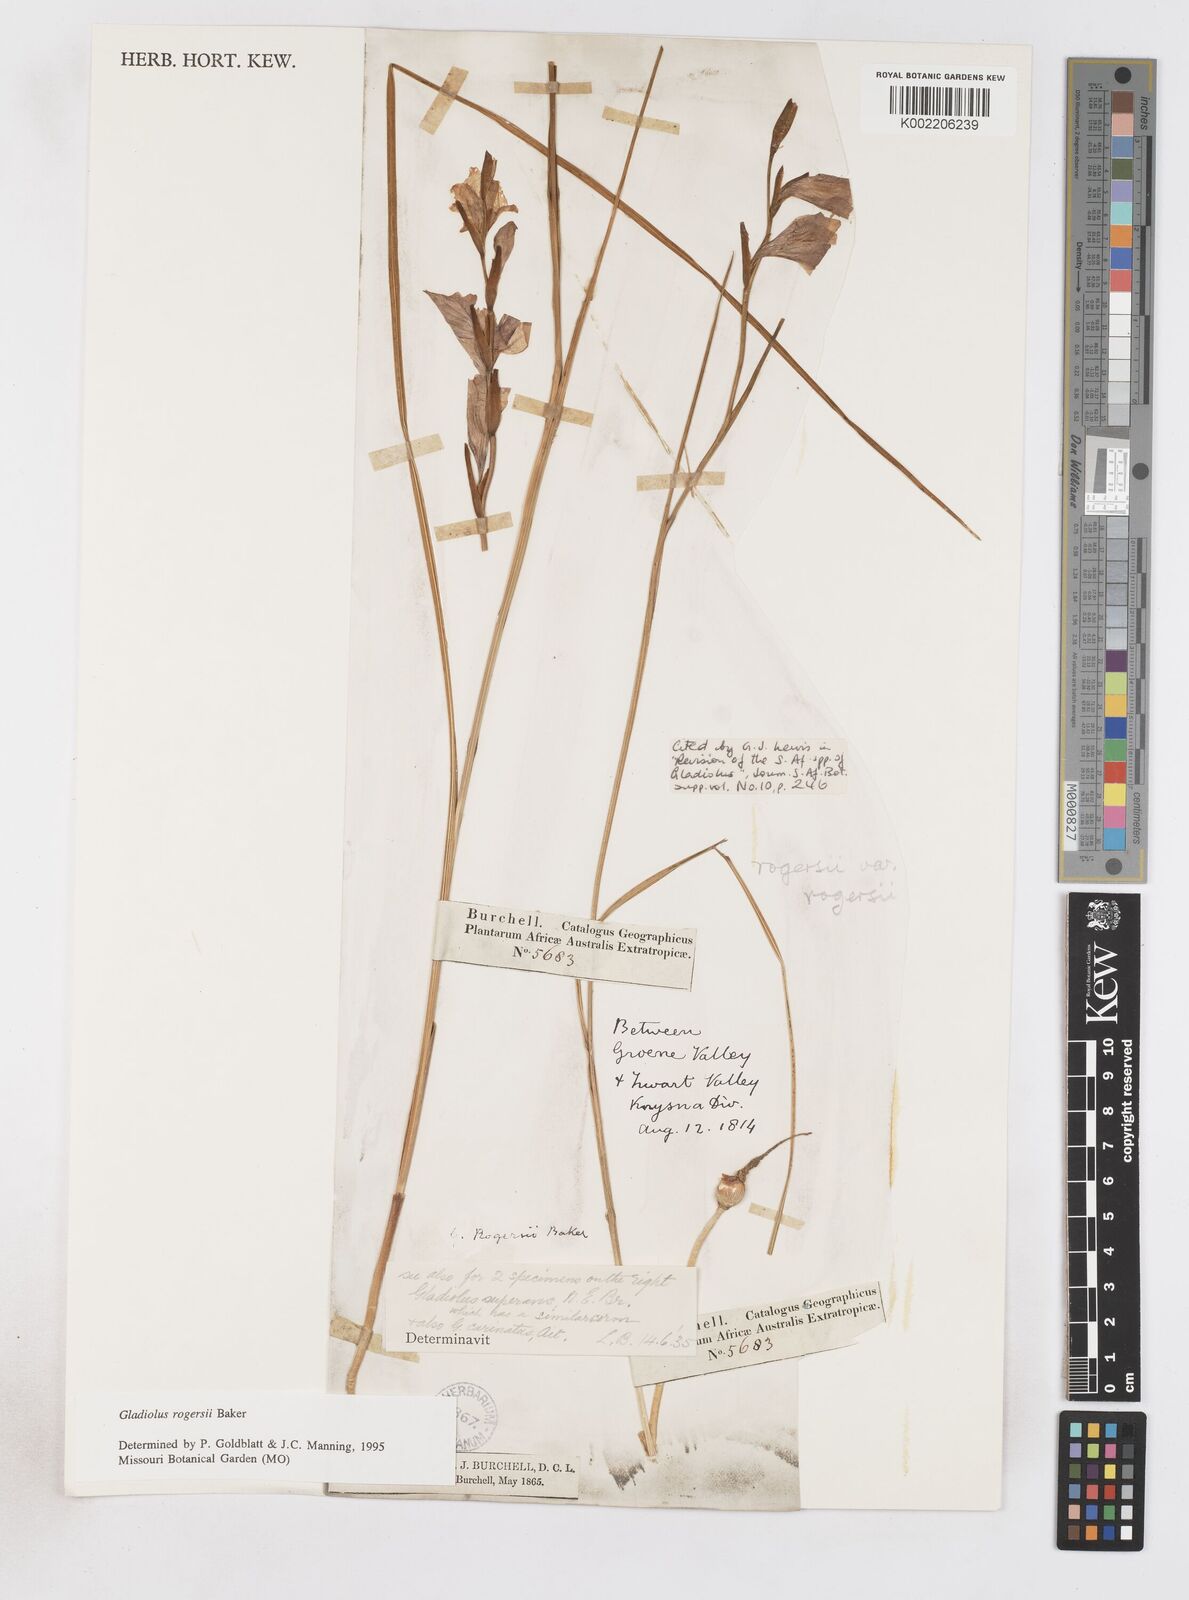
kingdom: Plantae
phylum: Tracheophyta
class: Liliopsida
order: Asparagales
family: Iridaceae
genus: Gladiolus
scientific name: Gladiolus rogersii
